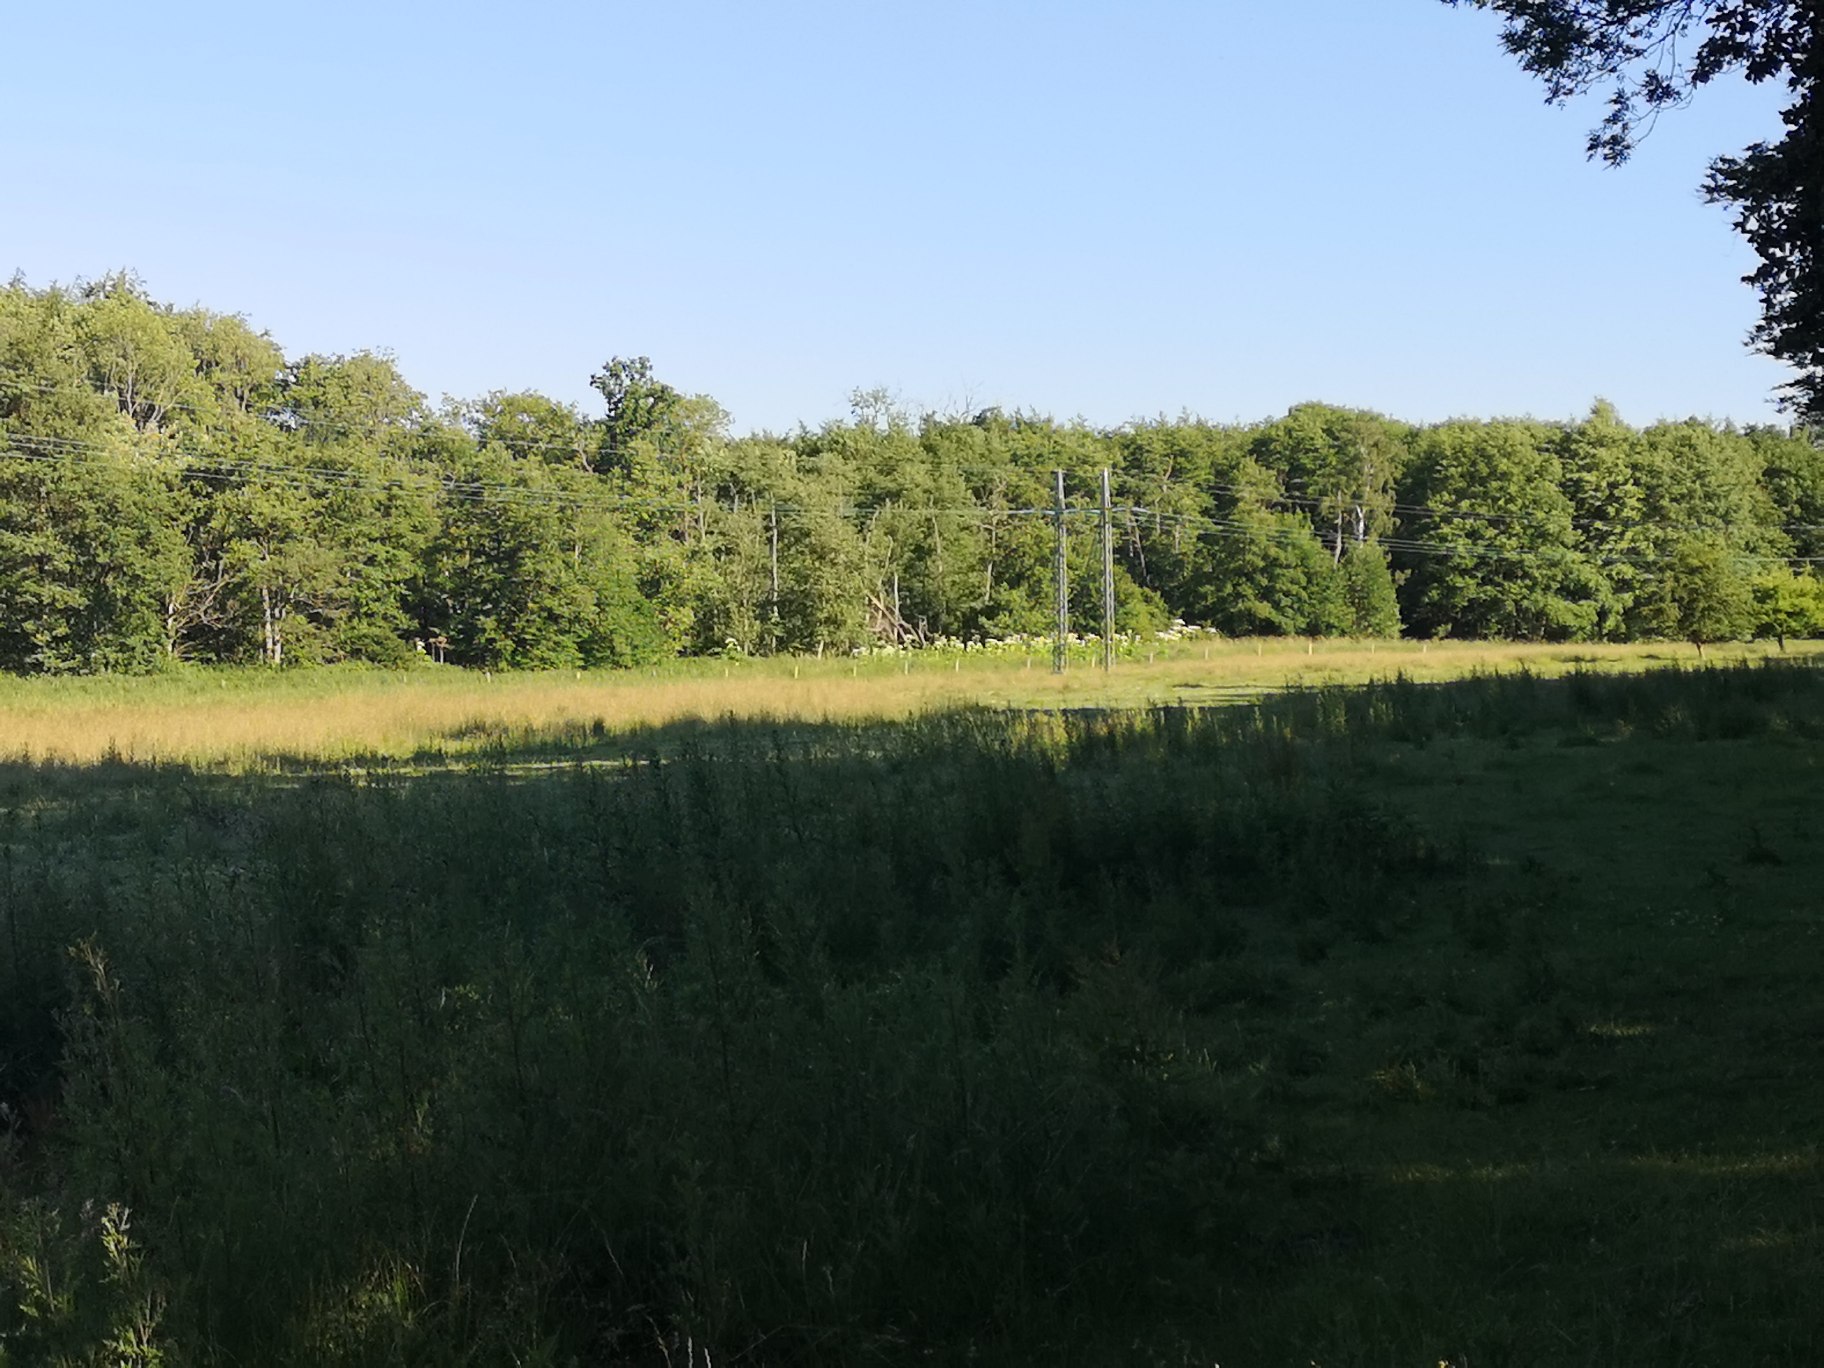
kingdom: Plantae
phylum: Tracheophyta
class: Magnoliopsida
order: Apiales
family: Apiaceae
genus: Heracleum
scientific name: Heracleum mantegazzianum
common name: Kæmpe-bjørneklo
